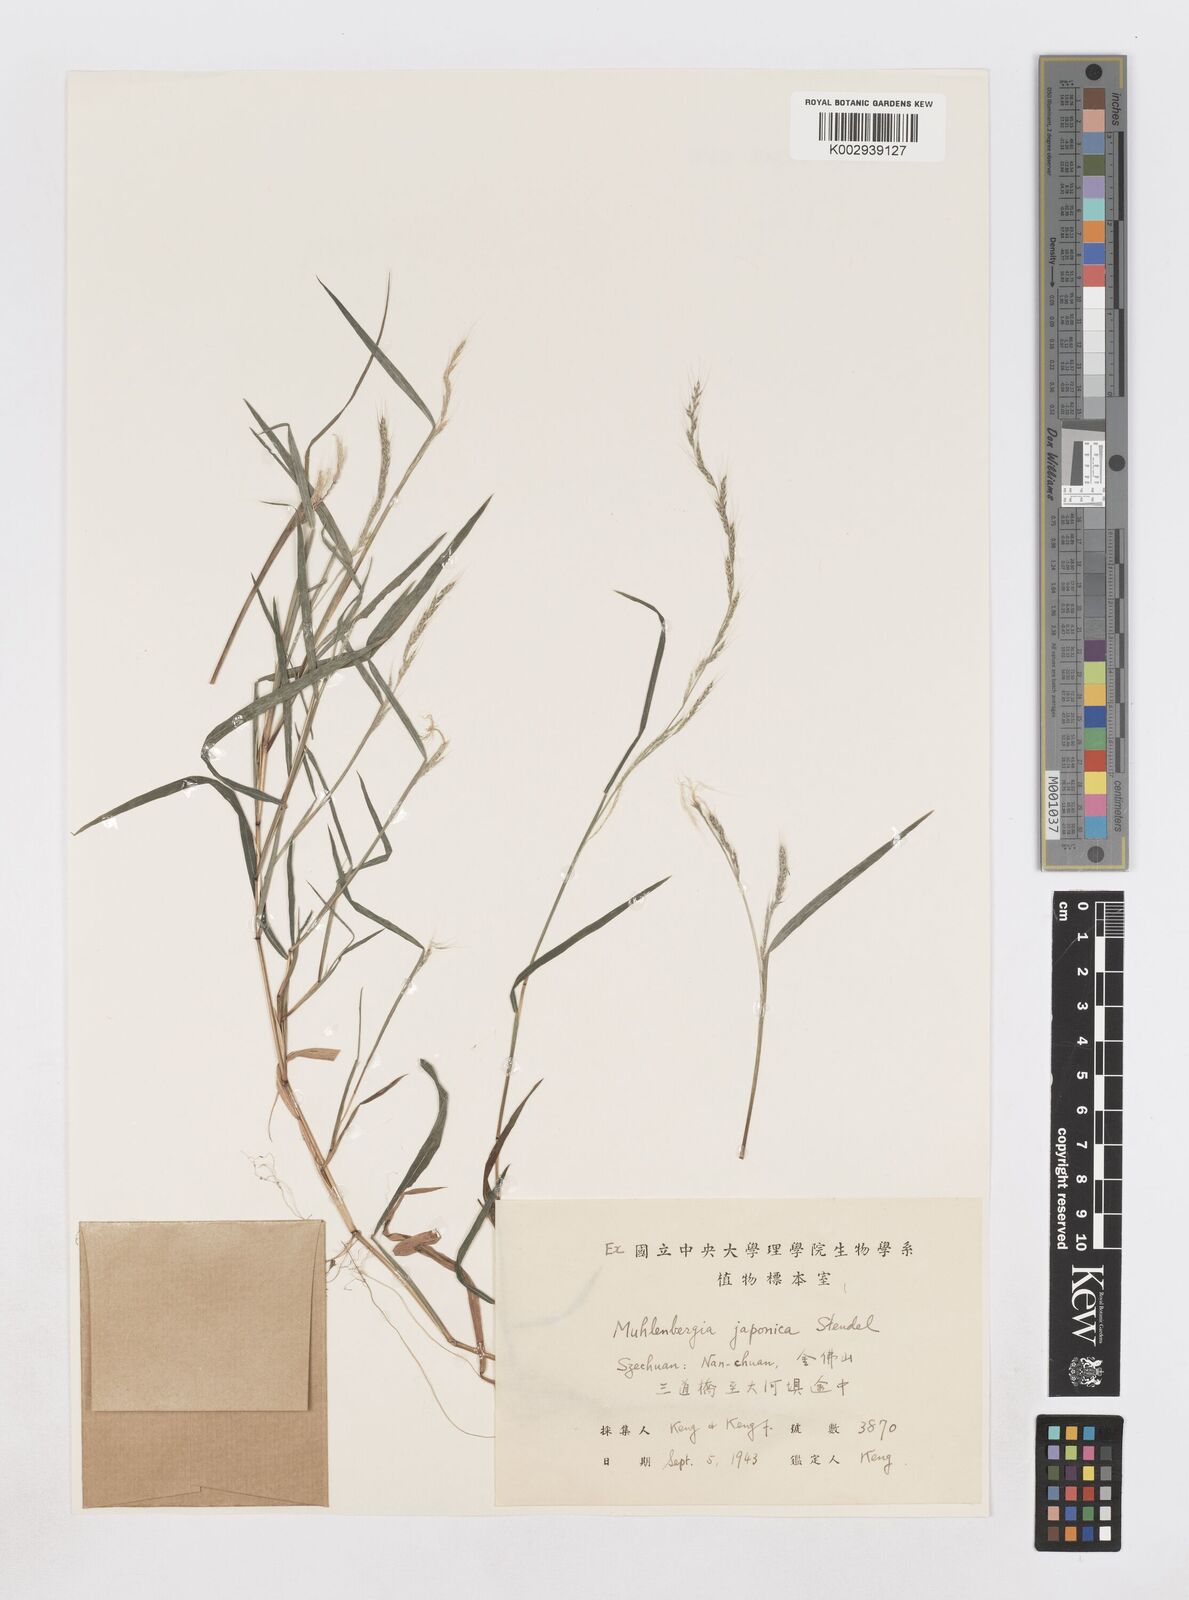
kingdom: Plantae
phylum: Tracheophyta
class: Liliopsida
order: Poales
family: Poaceae
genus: Muhlenbergia
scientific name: Muhlenbergia japonica
